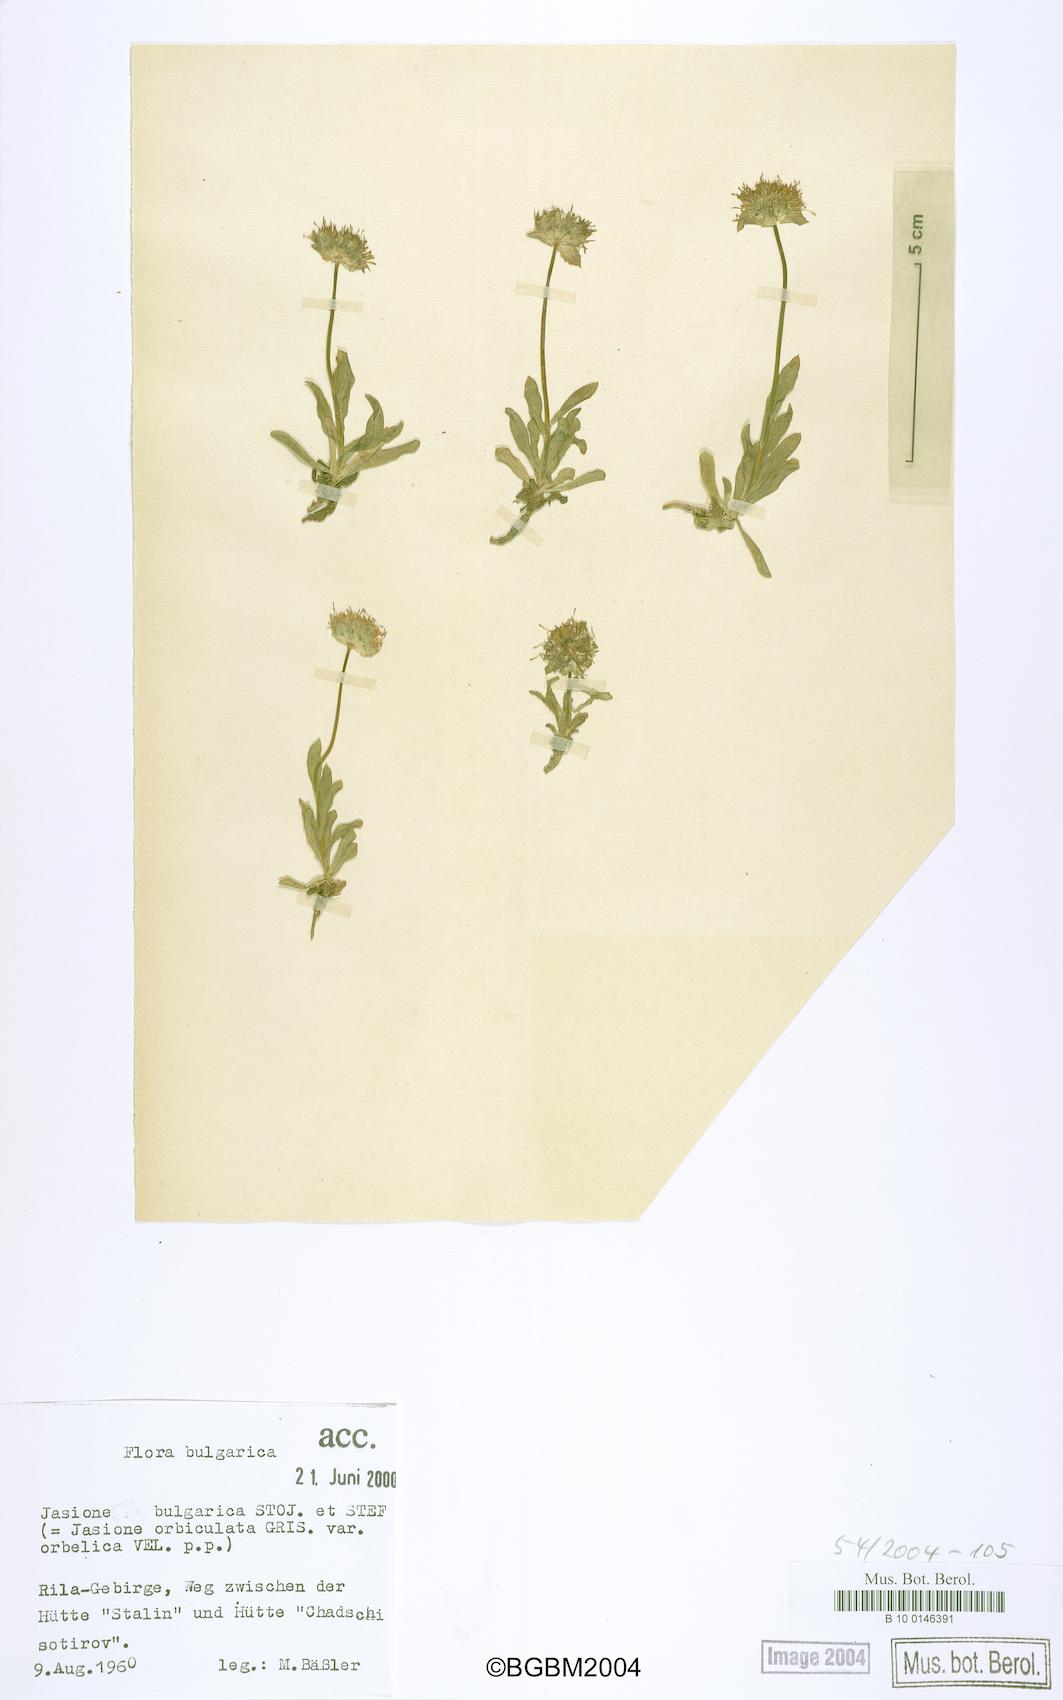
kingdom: Plantae
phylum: Tracheophyta
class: Magnoliopsida
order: Asterales
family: Campanulaceae
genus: Jasione
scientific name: Jasione bulgarica
